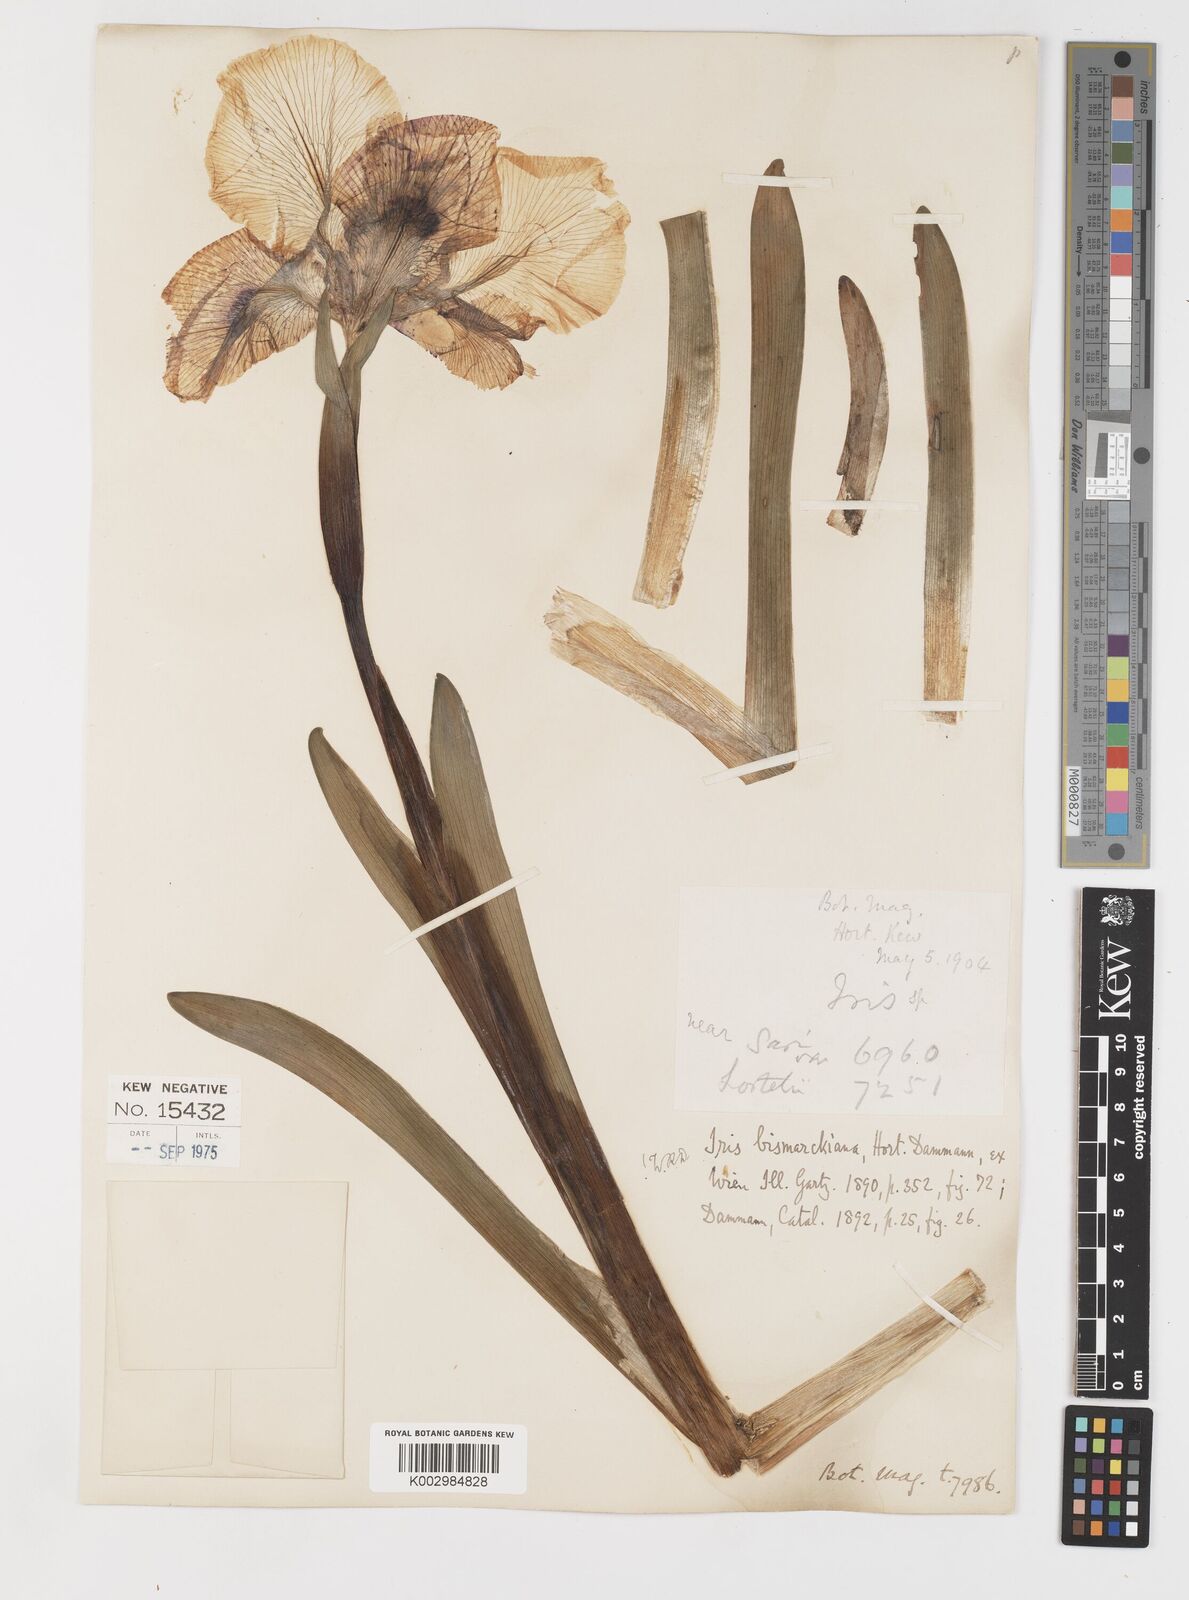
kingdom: Plantae
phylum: Tracheophyta
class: Liliopsida
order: Asparagales
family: Iridaceae
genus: Iris
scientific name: Iris bismarckiana
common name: Nazareth iris
